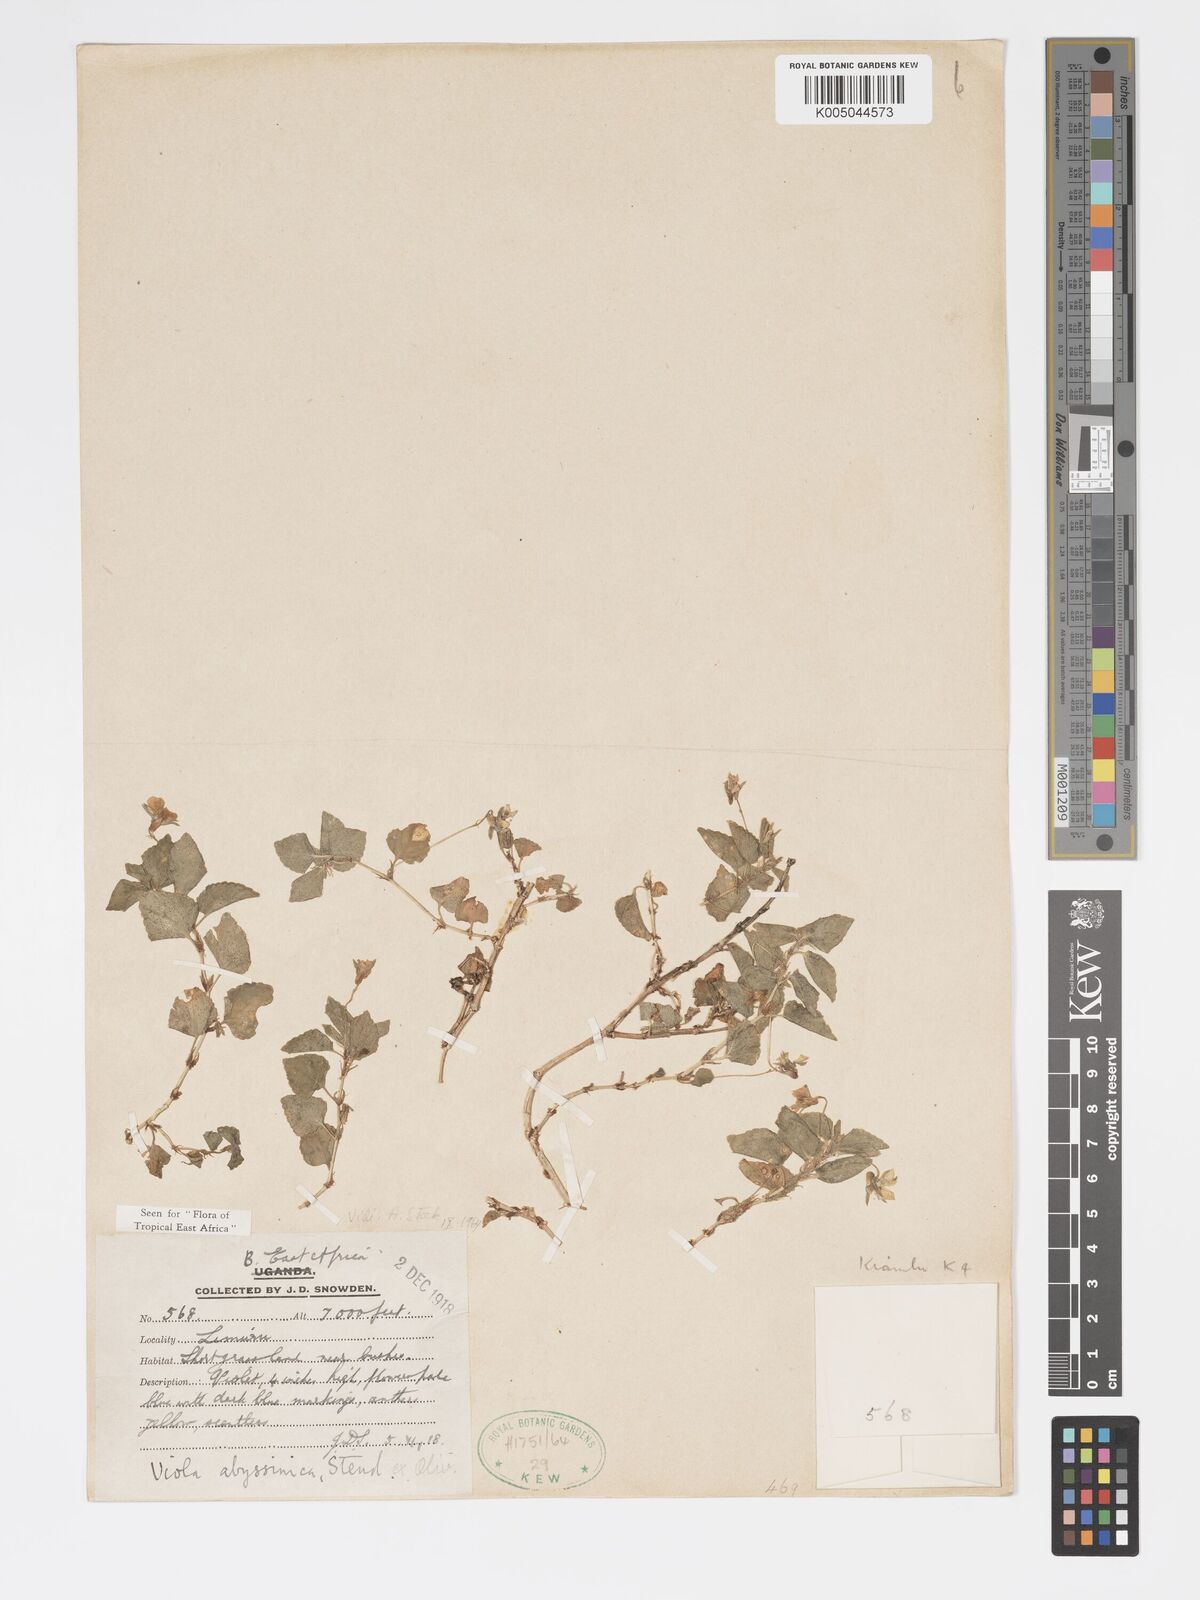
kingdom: Plantae
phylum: Tracheophyta
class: Magnoliopsida
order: Malpighiales
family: Violaceae
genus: Viola
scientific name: Viola abyssinica
